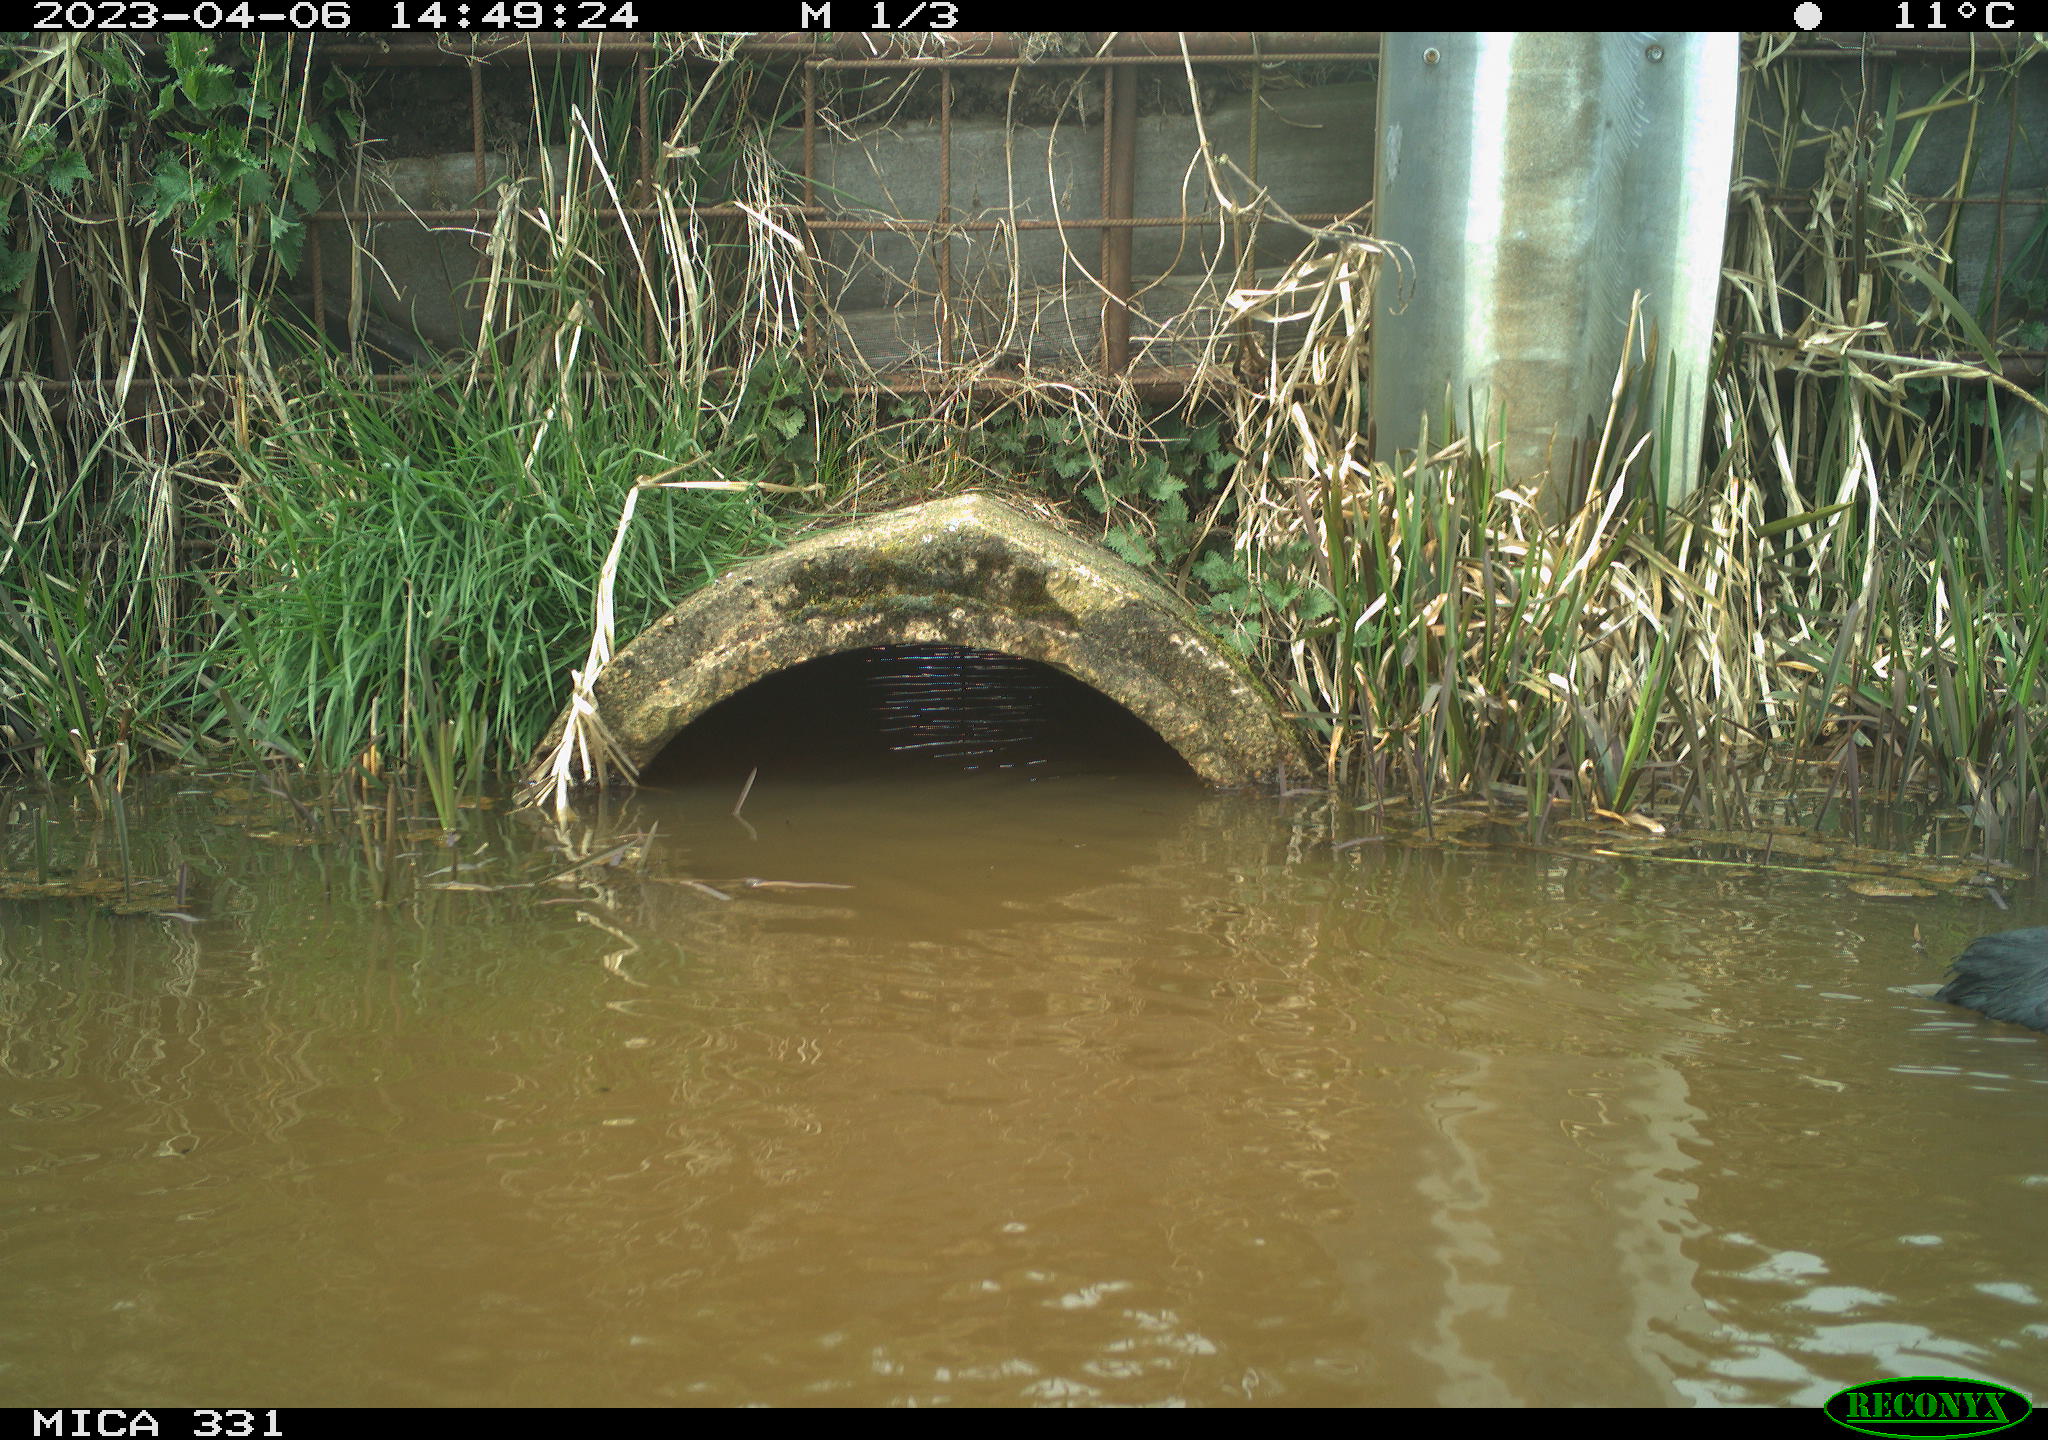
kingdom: Animalia
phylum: Chordata
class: Aves
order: Gruiformes
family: Rallidae
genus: Fulica
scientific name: Fulica atra
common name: Eurasian coot
